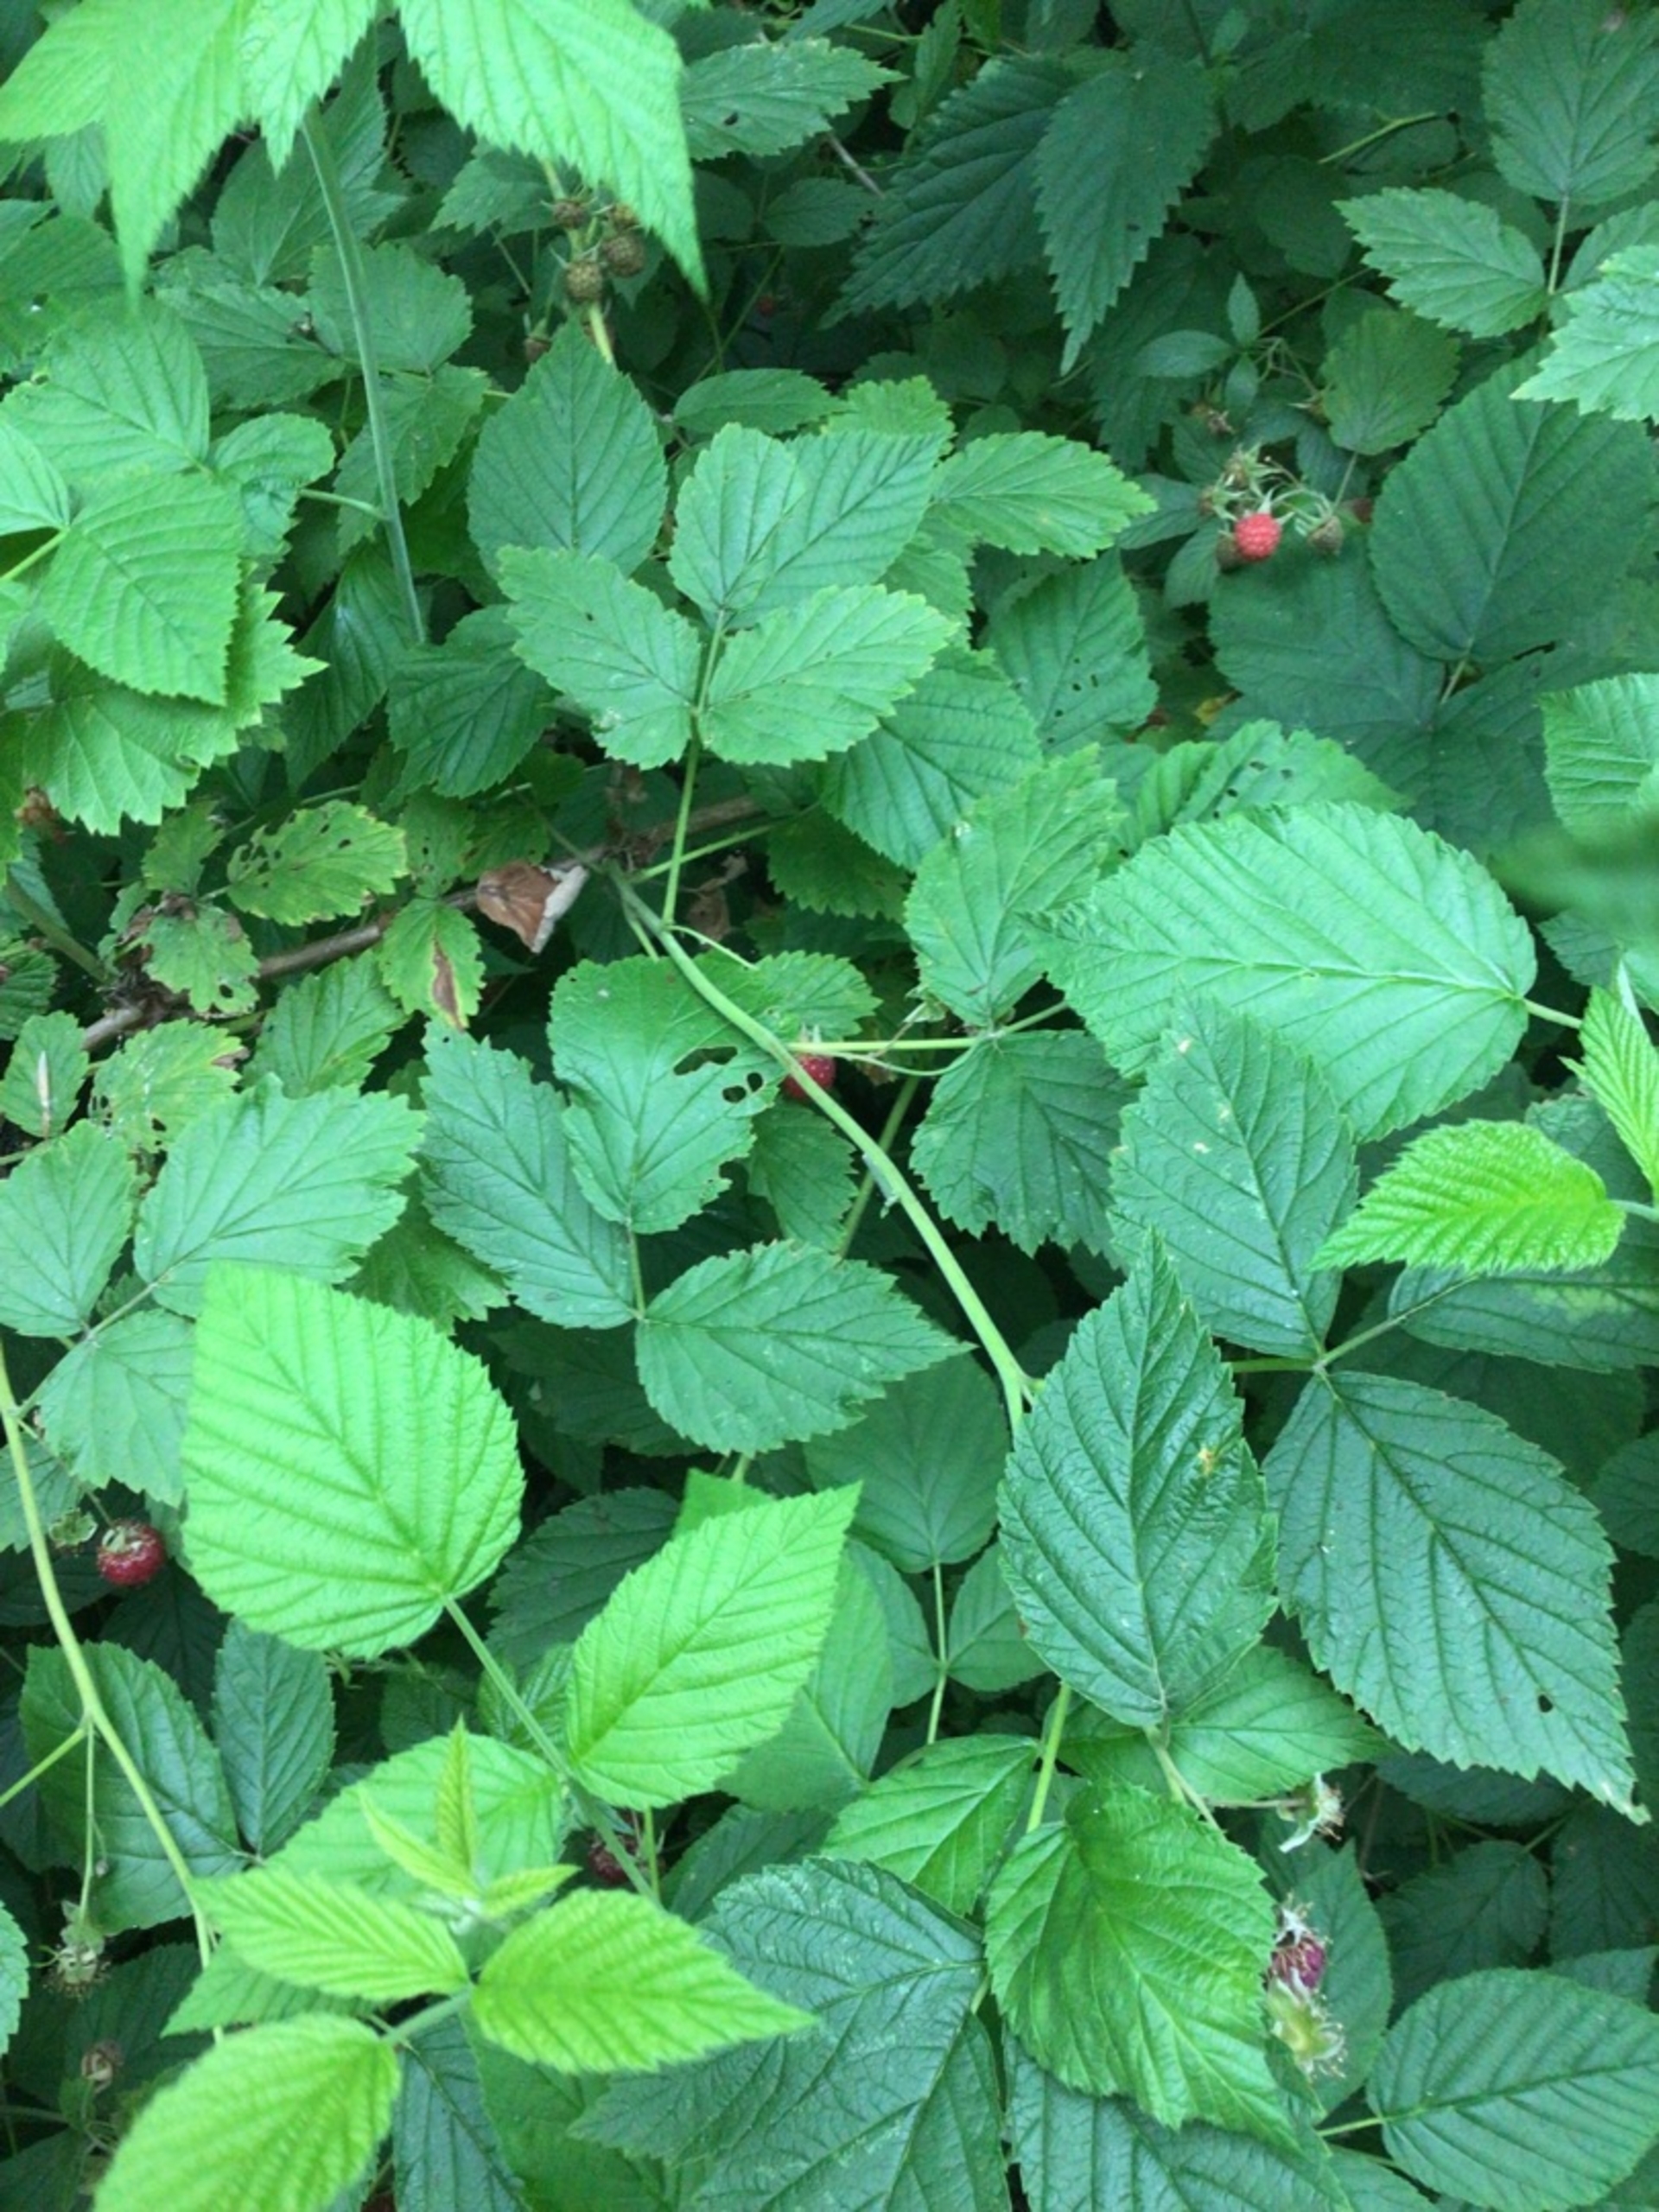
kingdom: Plantae
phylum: Tracheophyta
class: Magnoliopsida
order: Rosales
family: Rosaceae
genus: Rubus
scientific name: Rubus idaeus
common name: Hindbær
